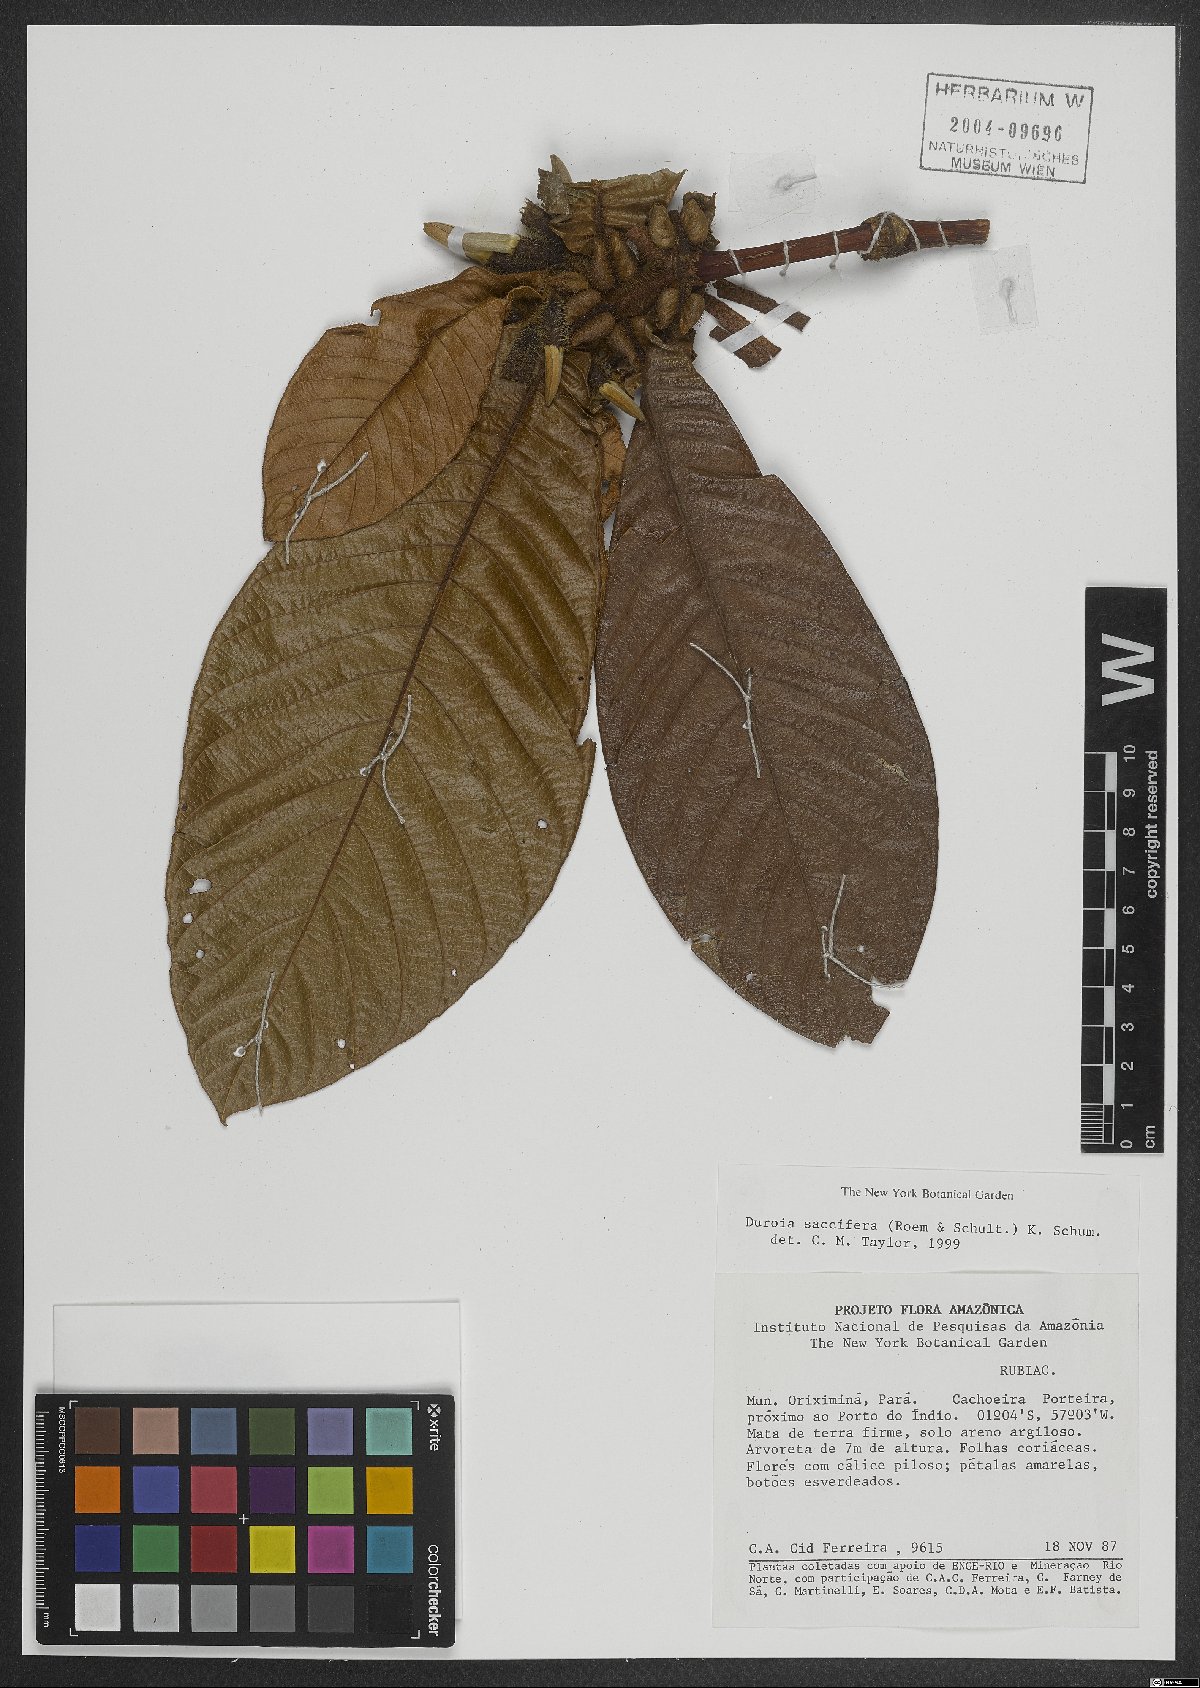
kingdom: Plantae
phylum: Tracheophyta
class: Magnoliopsida
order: Gentianales
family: Rubiaceae
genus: Duroia
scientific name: Duroia saccifera
